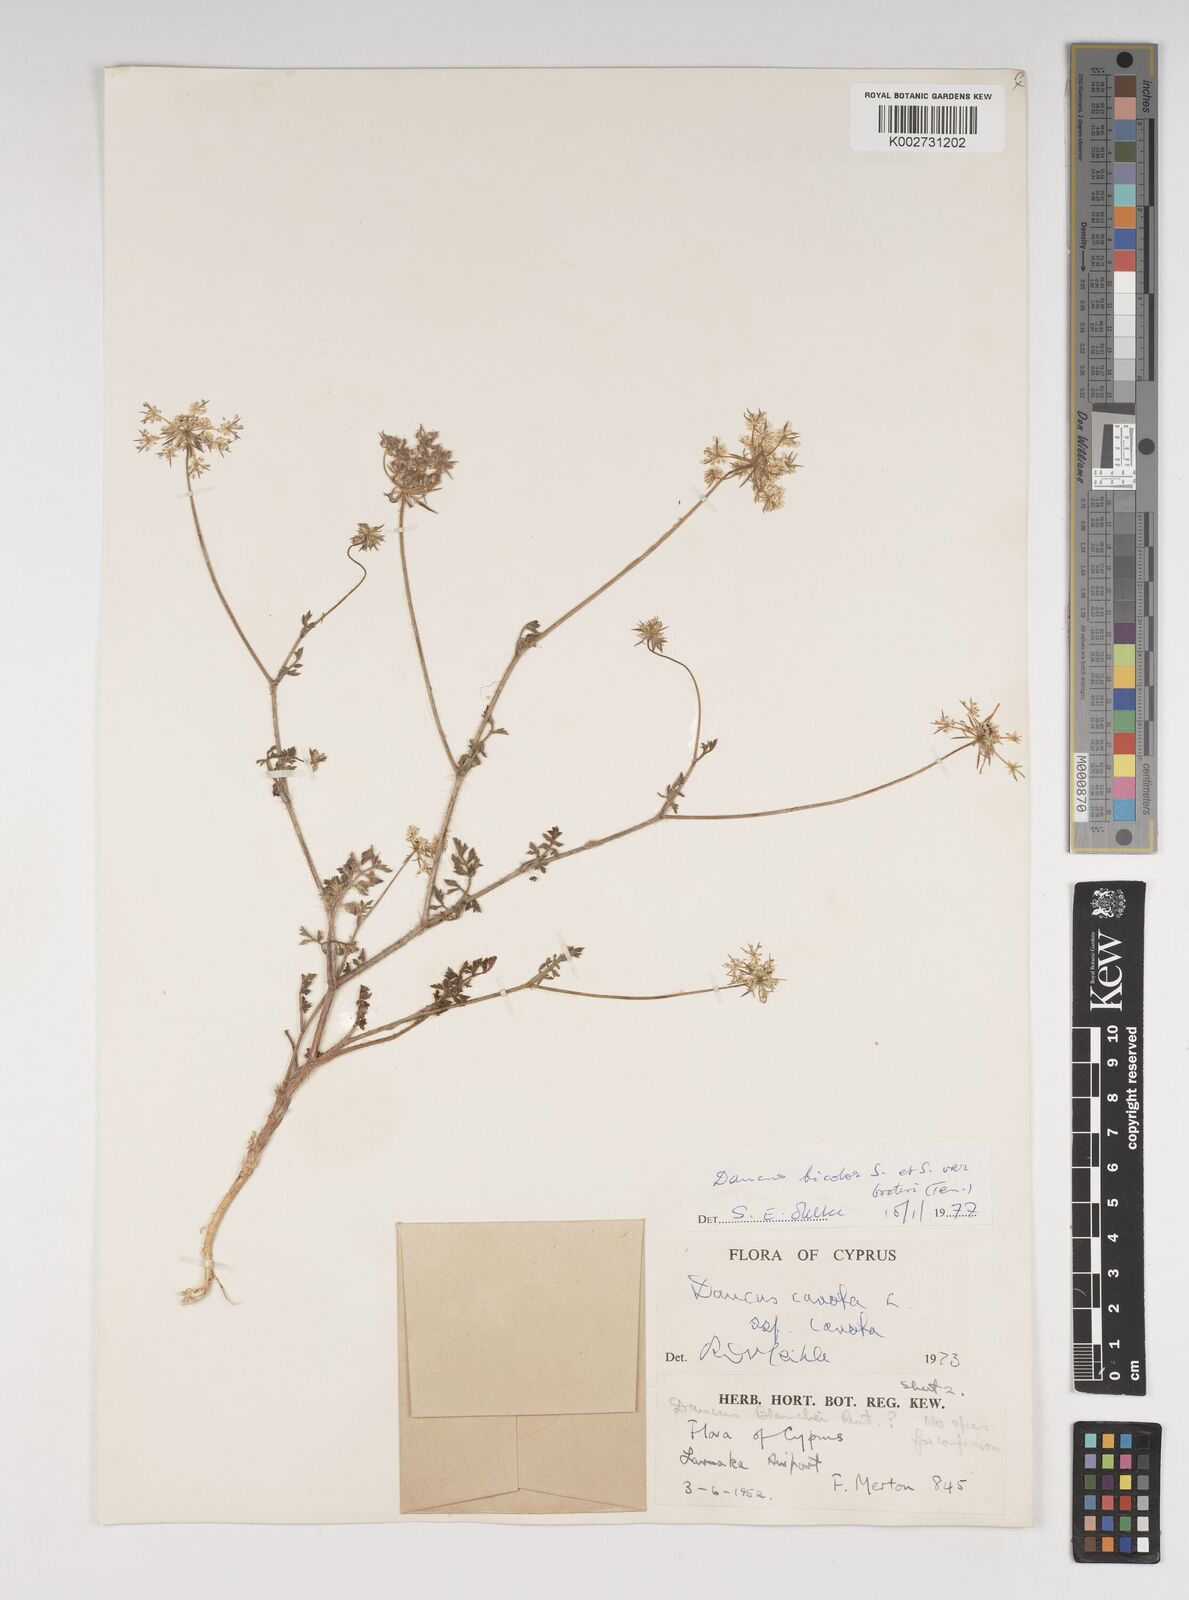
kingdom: Plantae
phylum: Tracheophyta
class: Magnoliopsida
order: Apiales
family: Apiaceae
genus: Daucus
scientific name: Daucus carota
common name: Wild carrot
